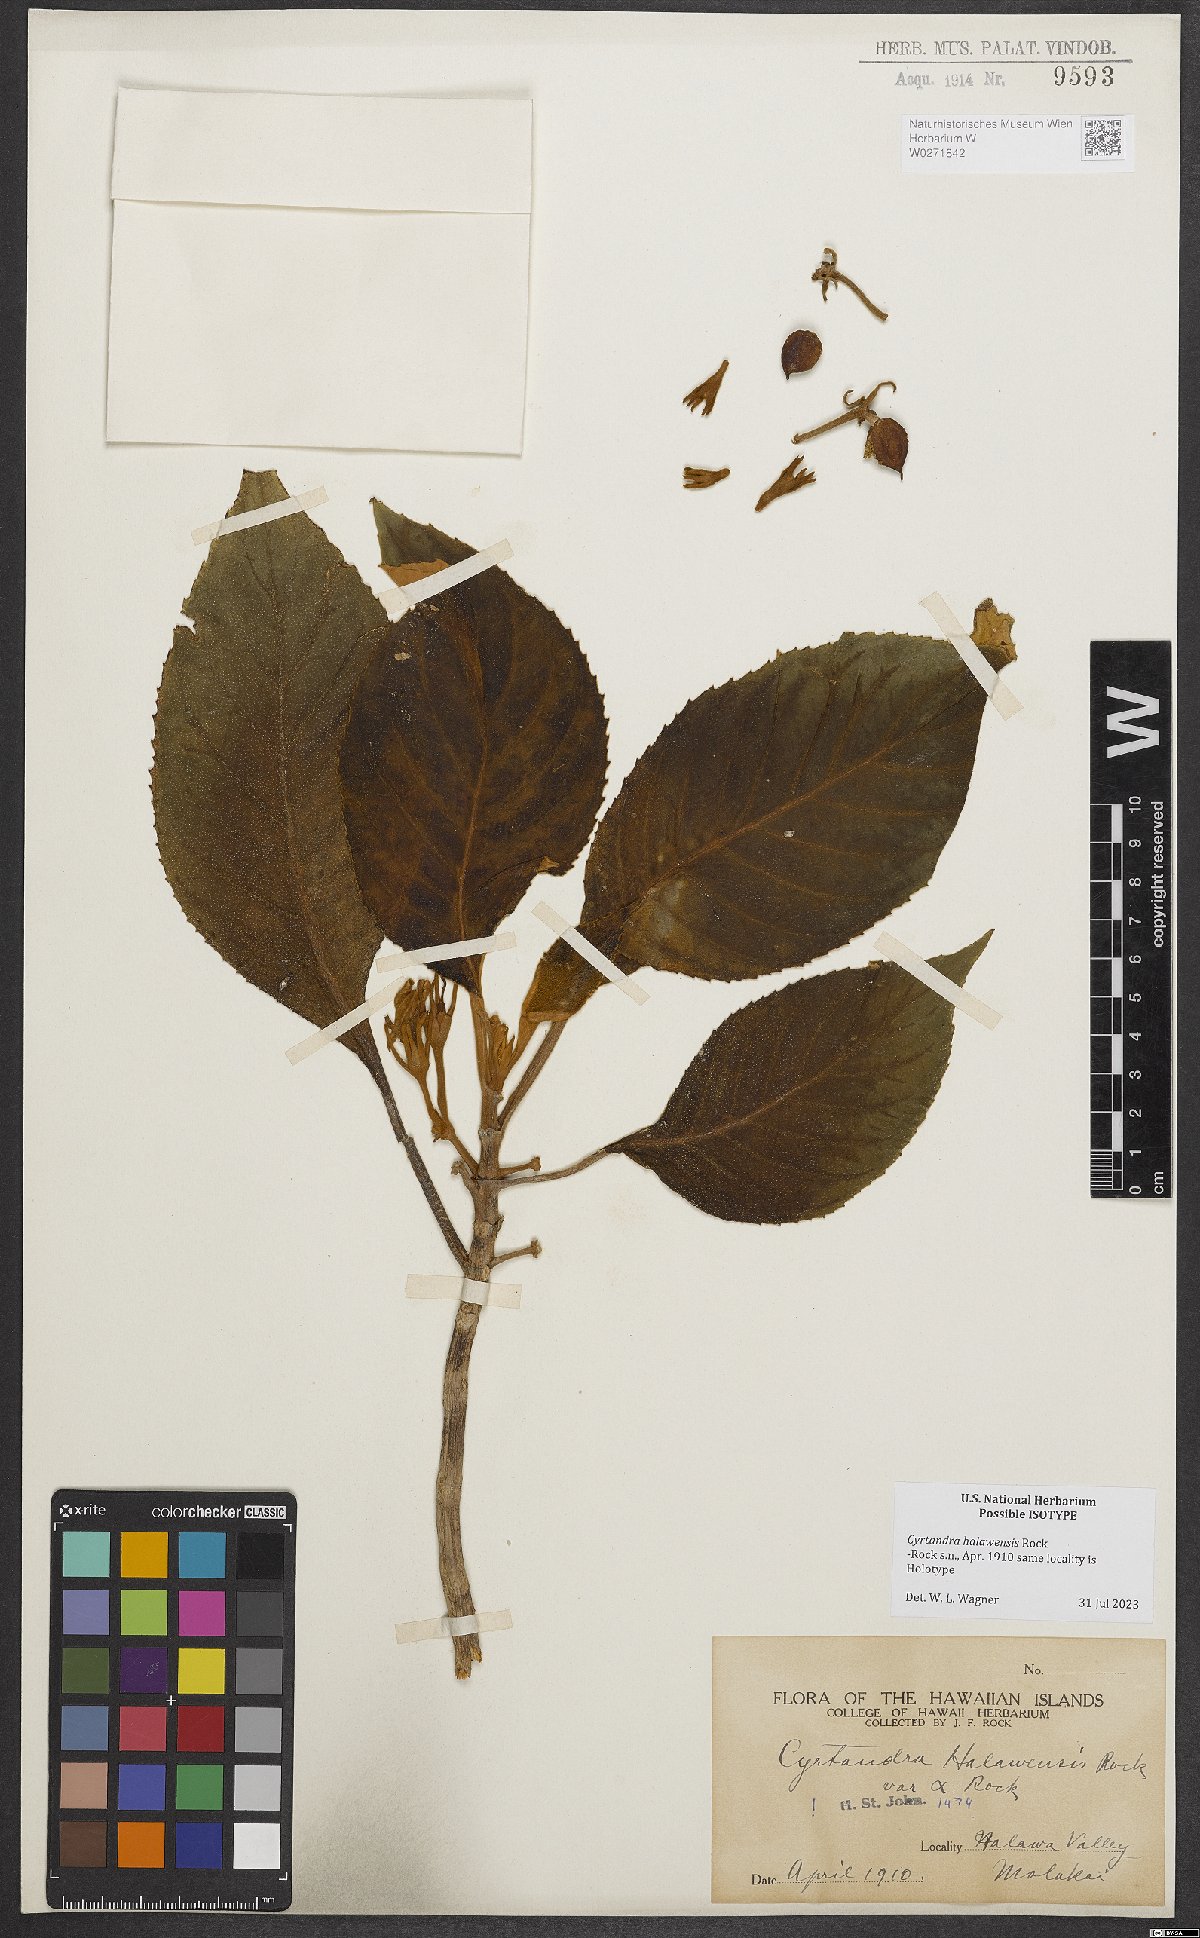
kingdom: Plantae
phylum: Tracheophyta
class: Magnoliopsida
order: Lamiales
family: Gesneriaceae
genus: Cyrtandra
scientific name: Cyrtandra halawensis
